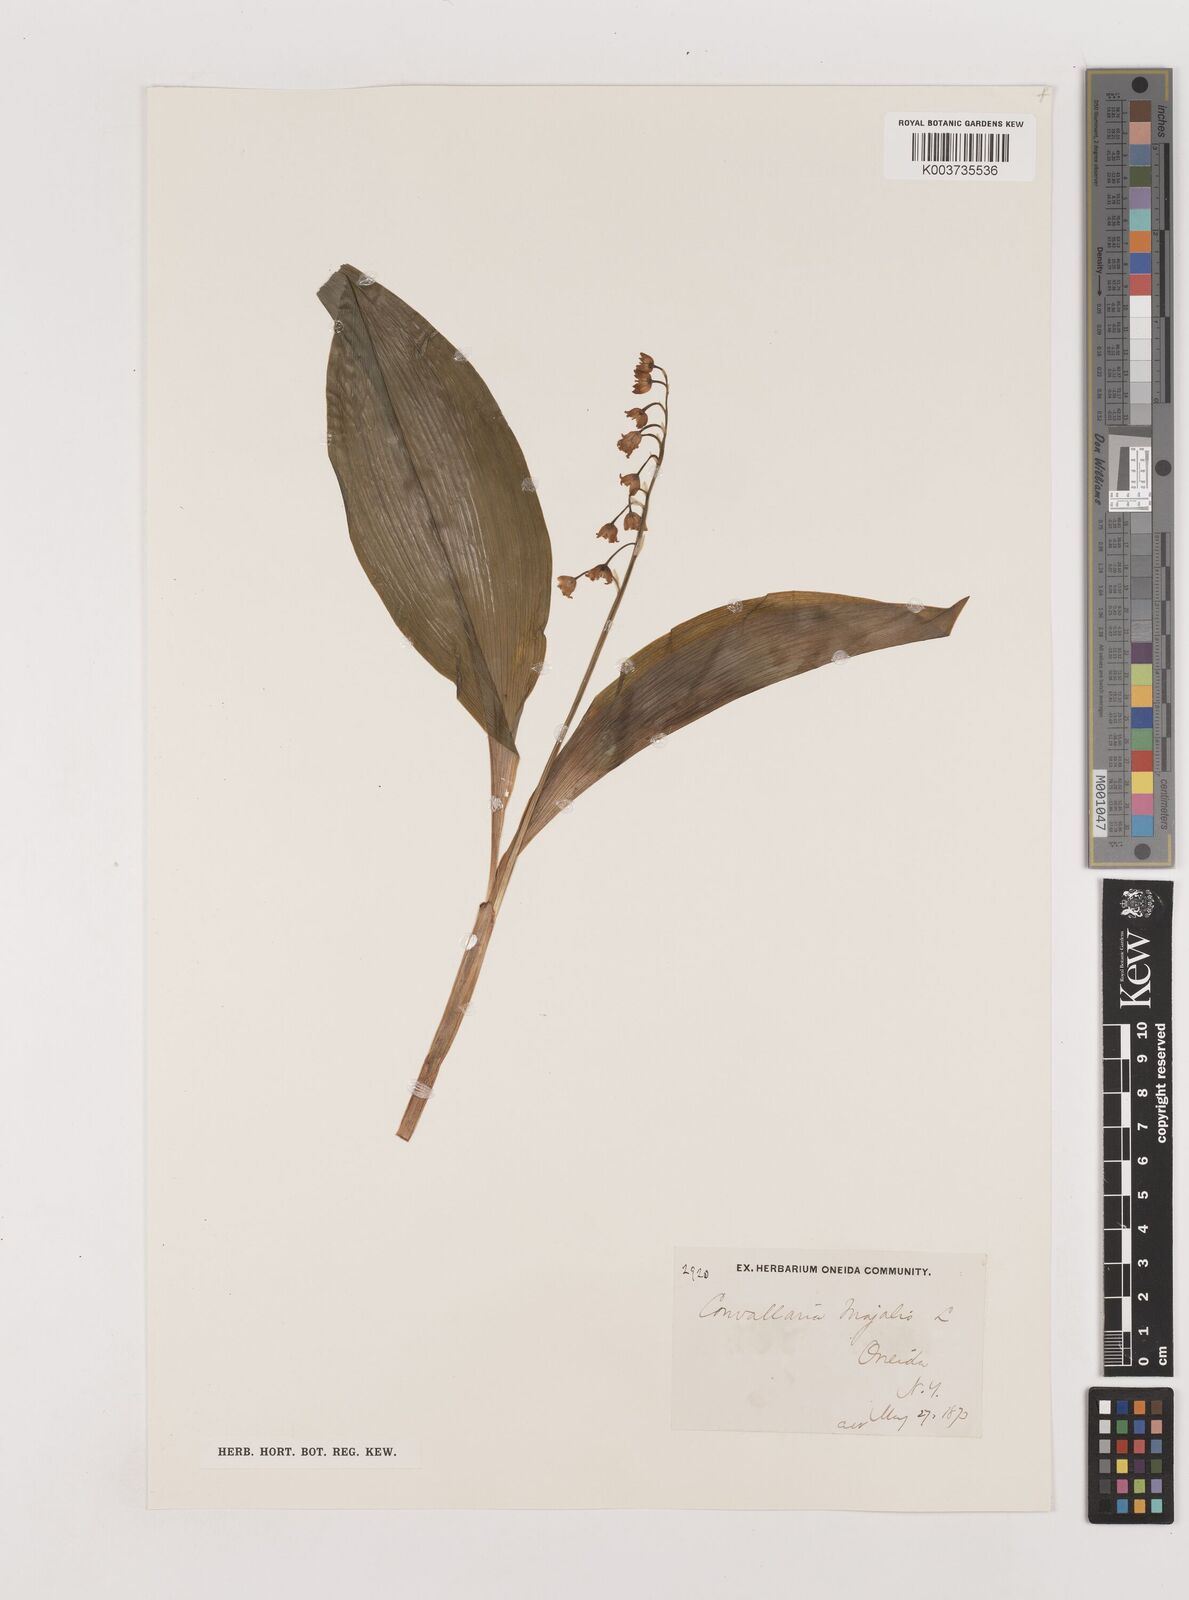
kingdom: Plantae
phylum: Tracheophyta
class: Liliopsida
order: Asparagales
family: Asparagaceae
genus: Convallaria
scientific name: Convallaria pseudomajalis
